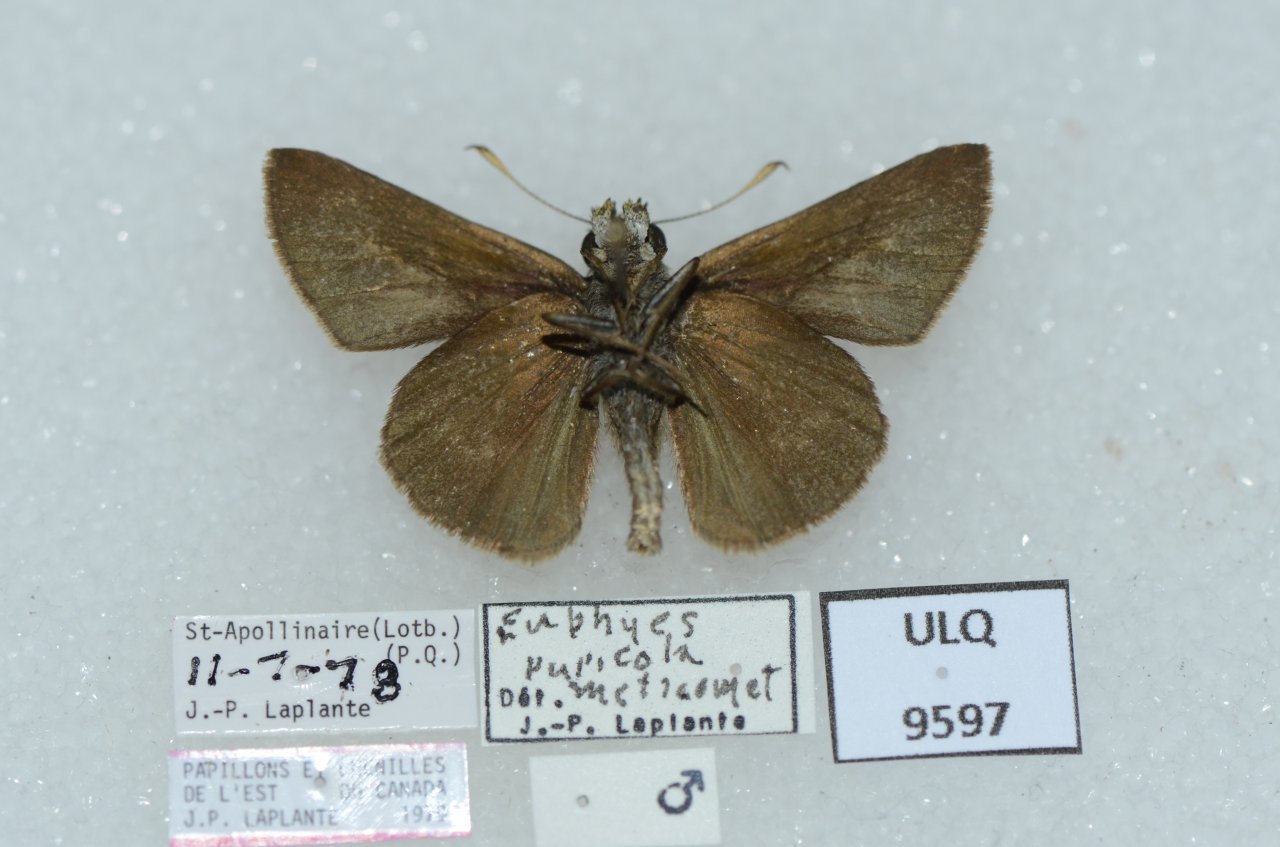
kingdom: Animalia
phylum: Arthropoda
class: Insecta
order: Lepidoptera
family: Hesperiidae
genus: Euphyes
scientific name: Euphyes vestris
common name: Dun Skipper
